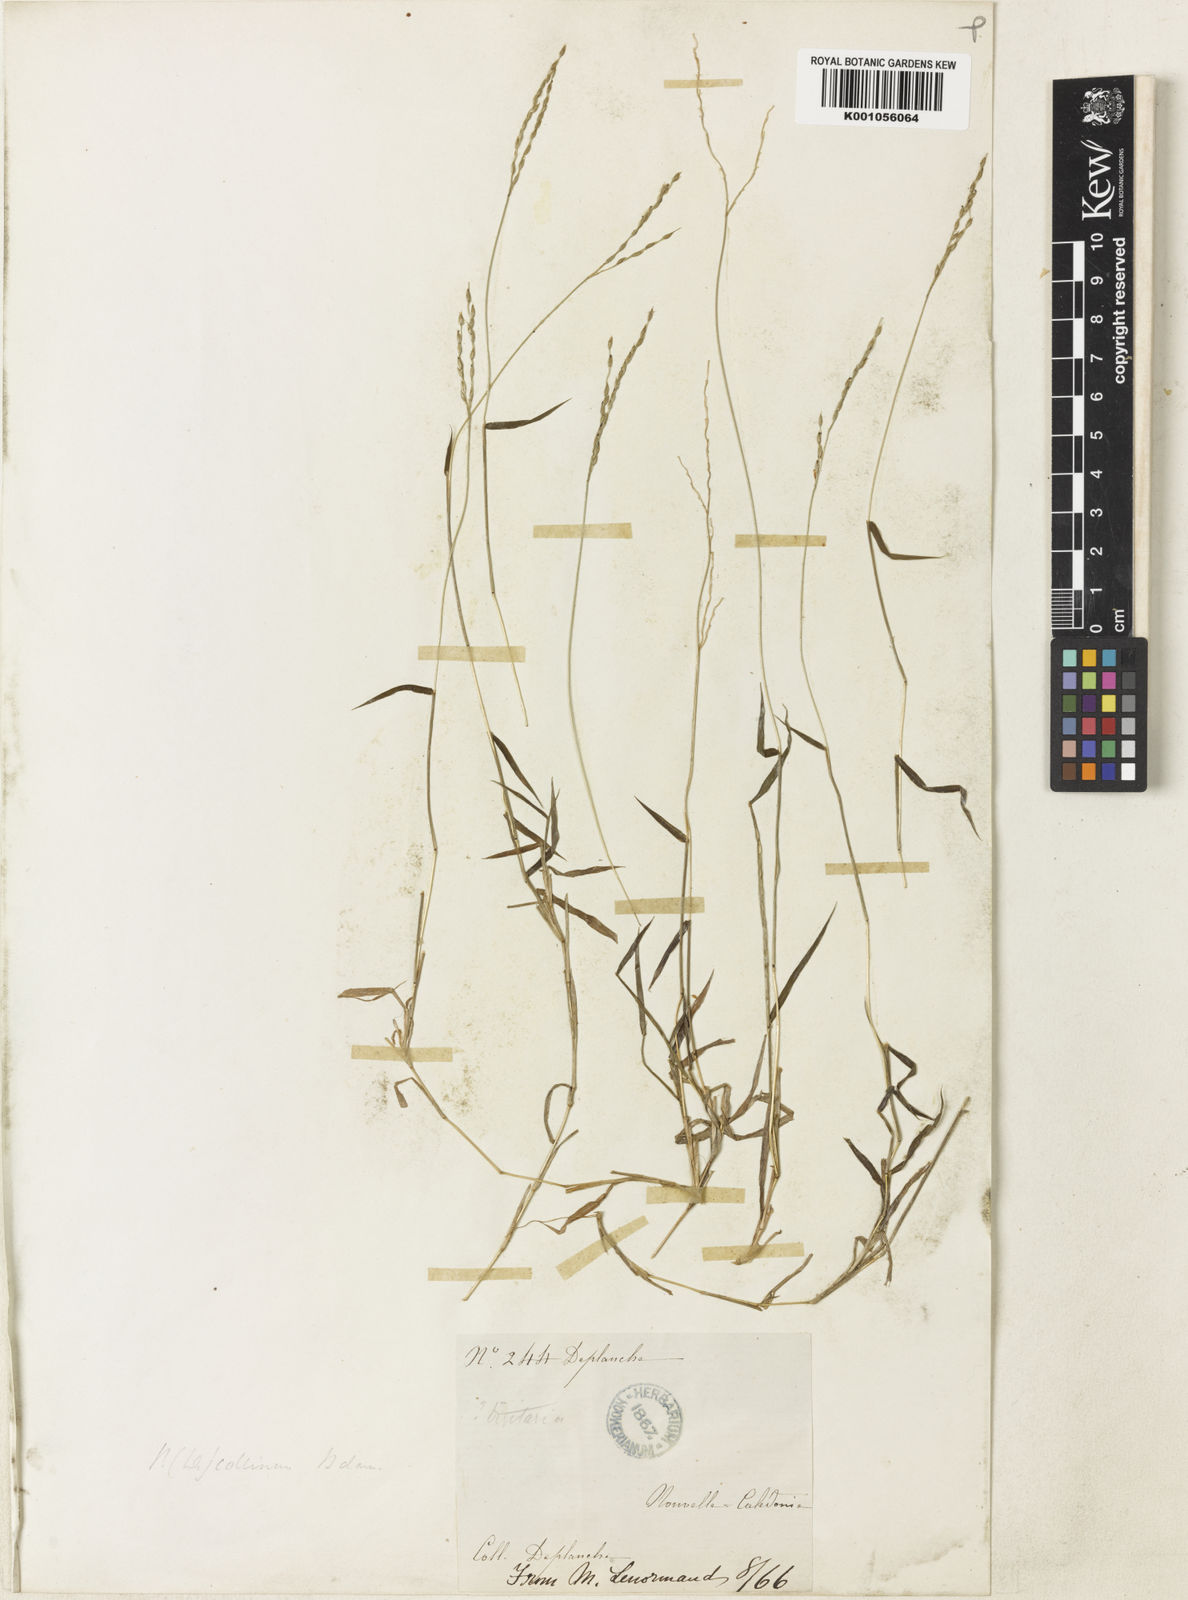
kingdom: Plantae
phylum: Tracheophyta
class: Liliopsida
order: Poales
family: Poaceae
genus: Digitaria
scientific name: Digitaria montana
